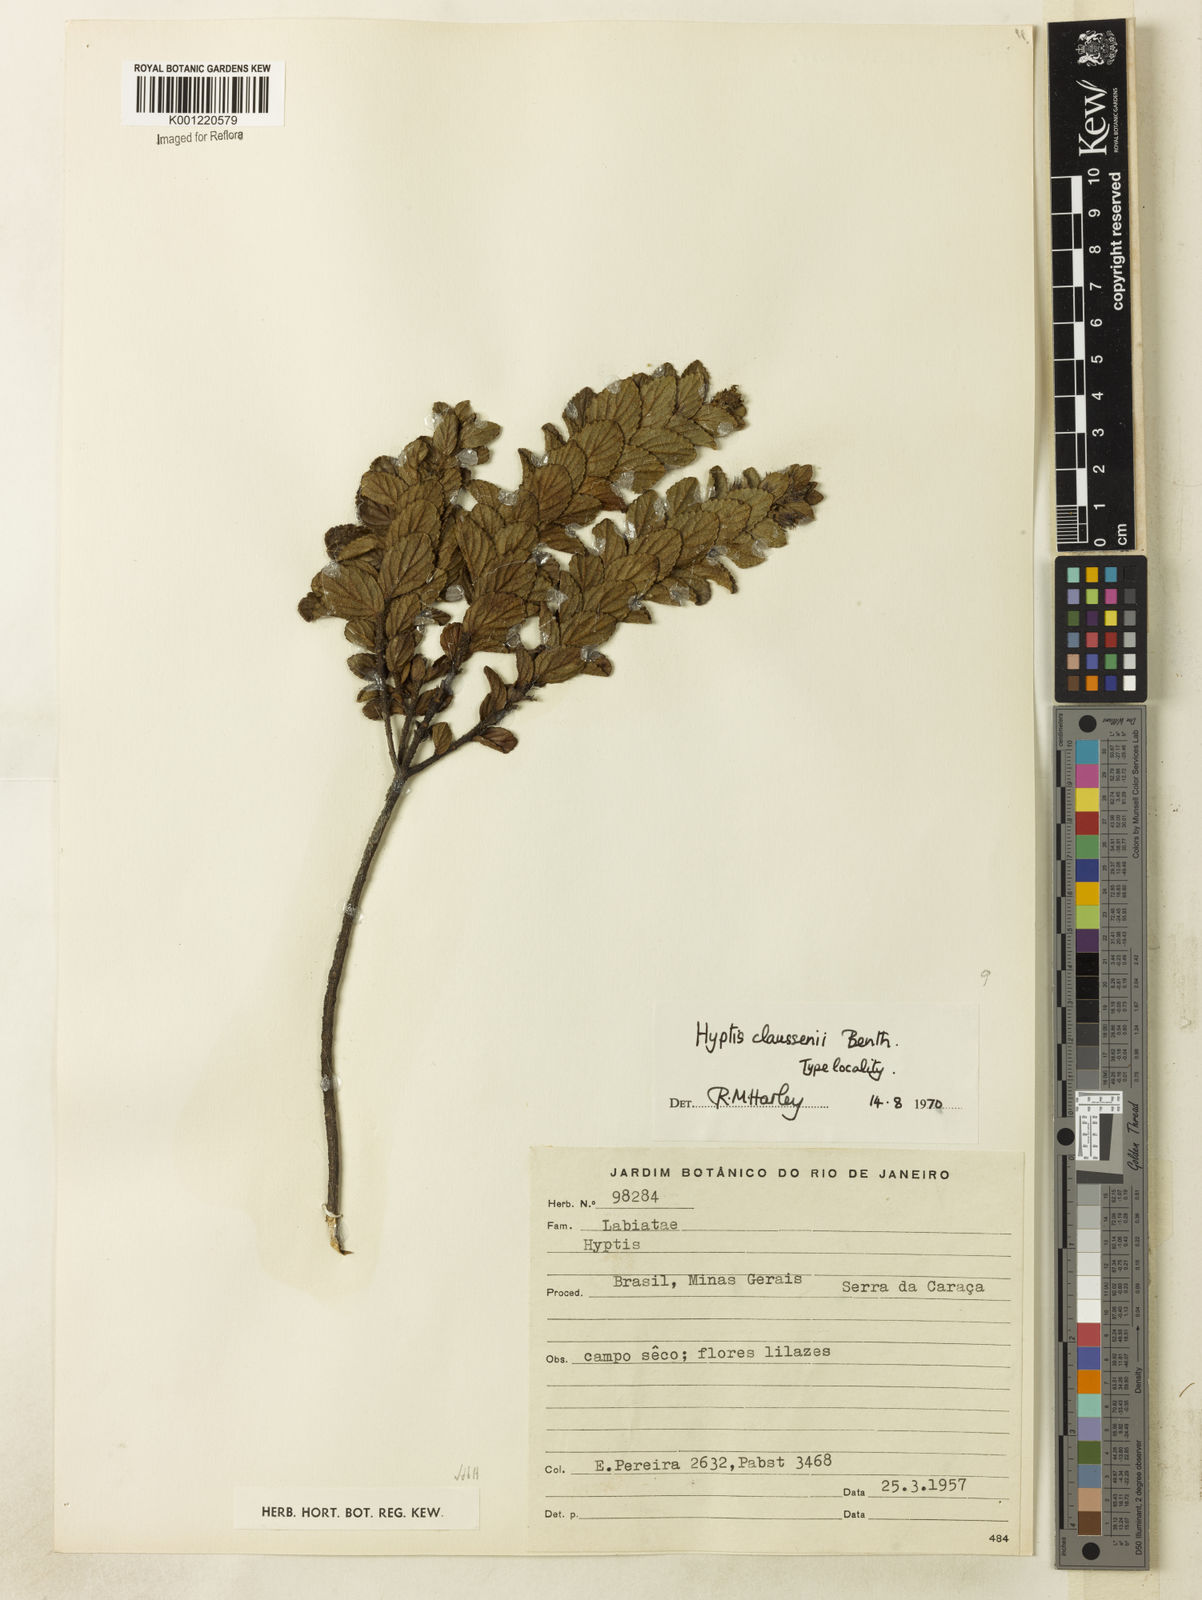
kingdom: Plantae
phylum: Tracheophyta
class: Magnoliopsida
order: Lamiales
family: Lamiaceae
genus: Hyptidendron
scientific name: Hyptidendron claussenii
